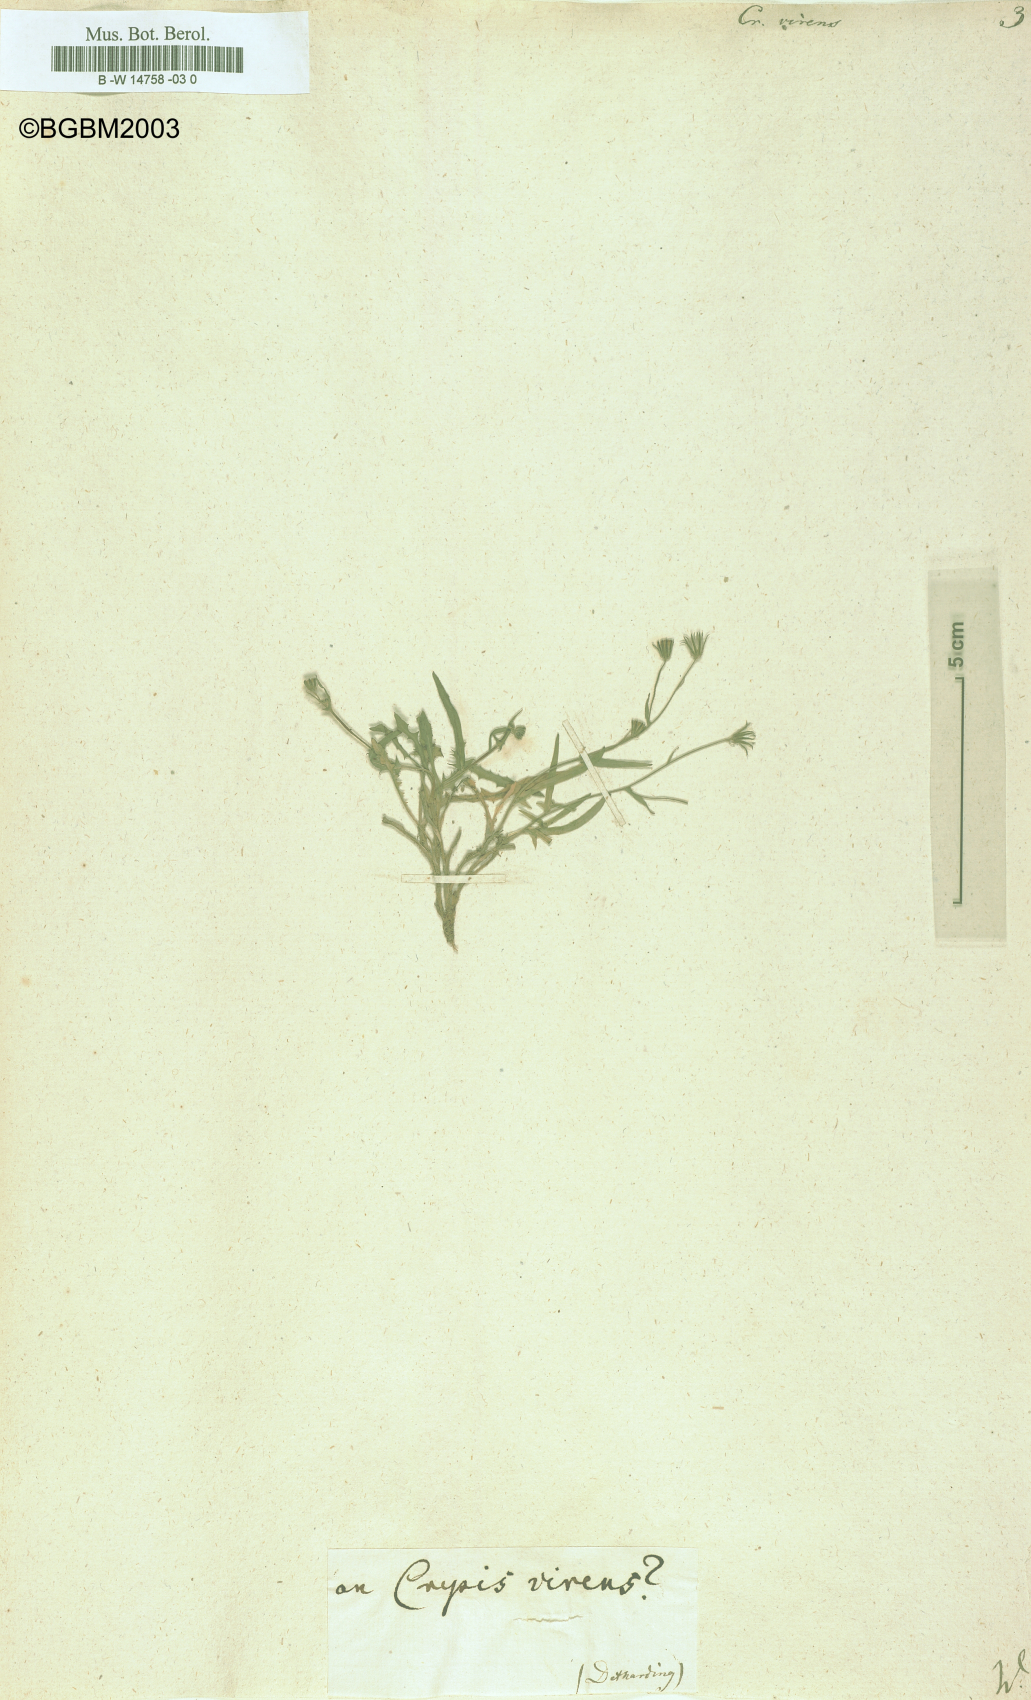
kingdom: Plantae
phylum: Tracheophyta
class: Magnoliopsida
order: Asterales
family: Asteraceae
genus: Crepis
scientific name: Crepis capillaris
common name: Smooth hawksbeard
